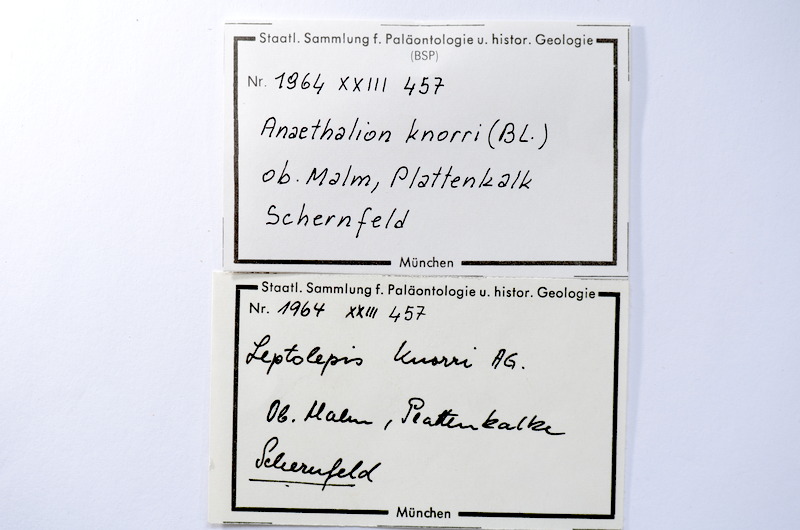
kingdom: Animalia
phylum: Chordata
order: Elopiformes
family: Anaethalionidae
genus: Anaethalion
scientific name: Anaethalion knorri
